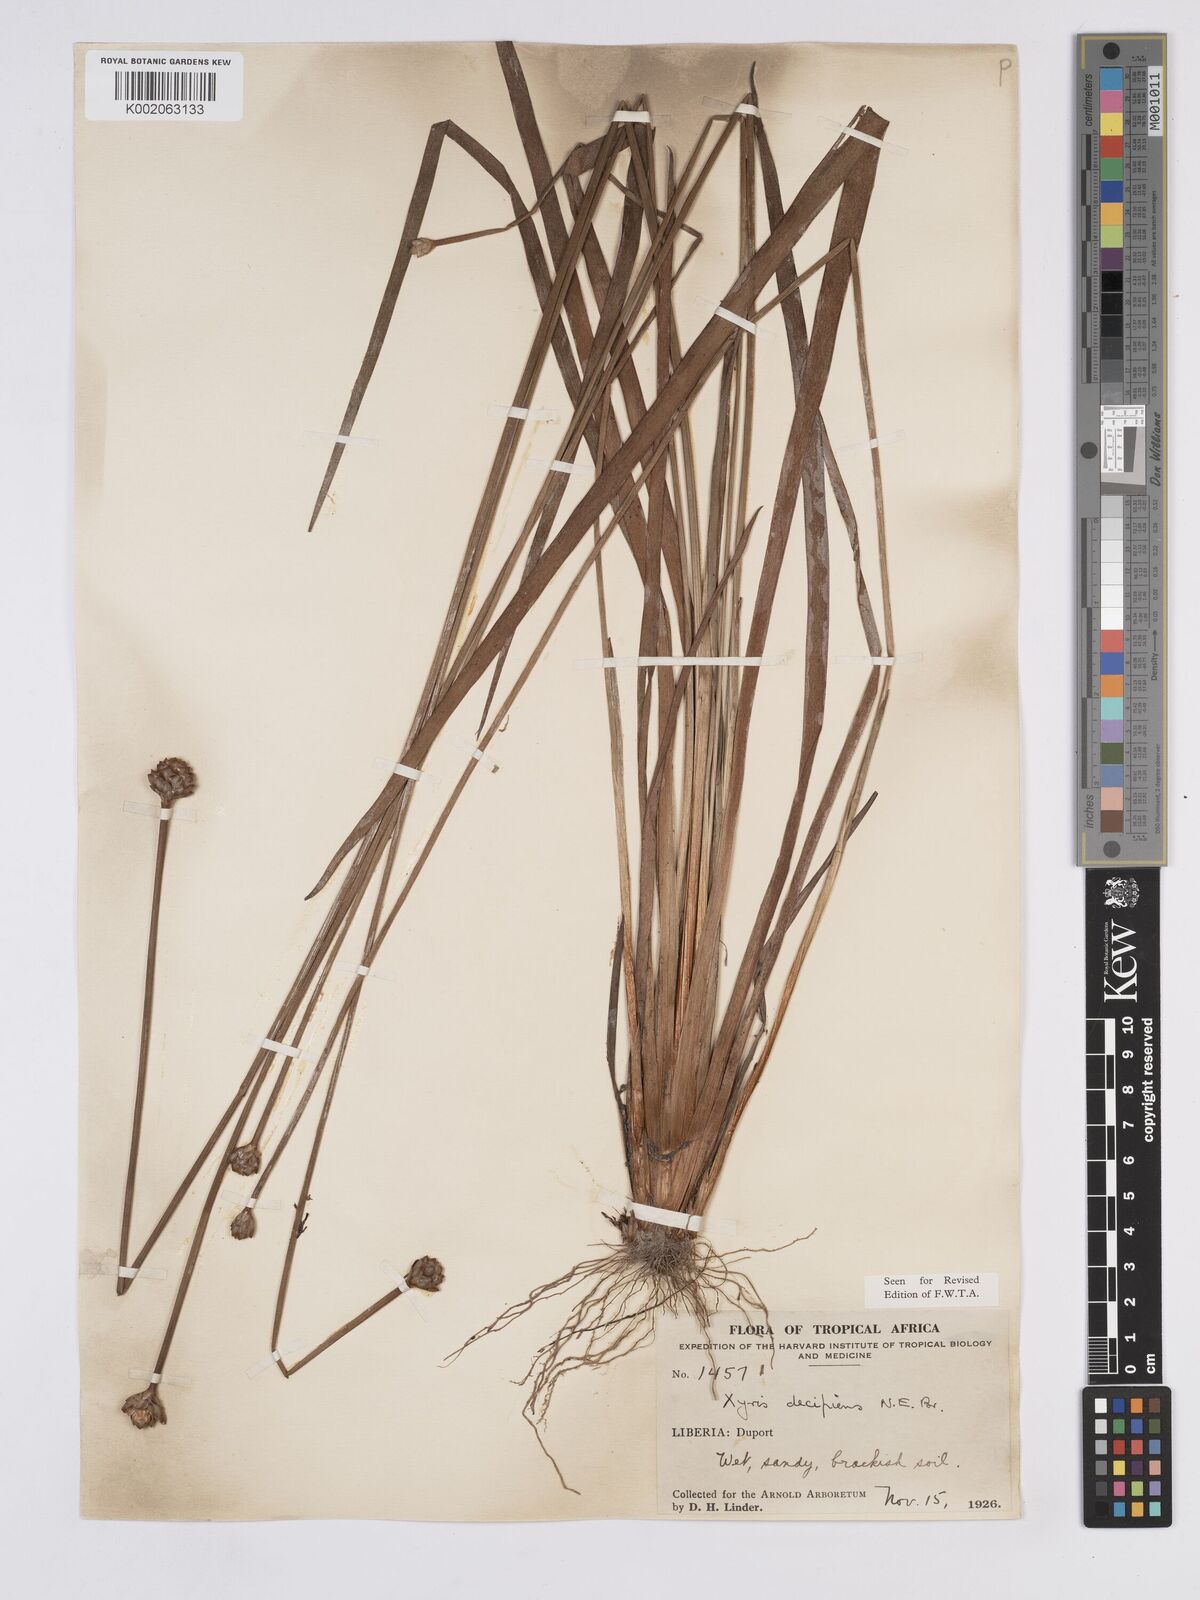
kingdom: Plantae
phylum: Tracheophyta
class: Liliopsida
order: Poales
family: Xyridaceae
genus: Xyris
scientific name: Xyris decipiens
